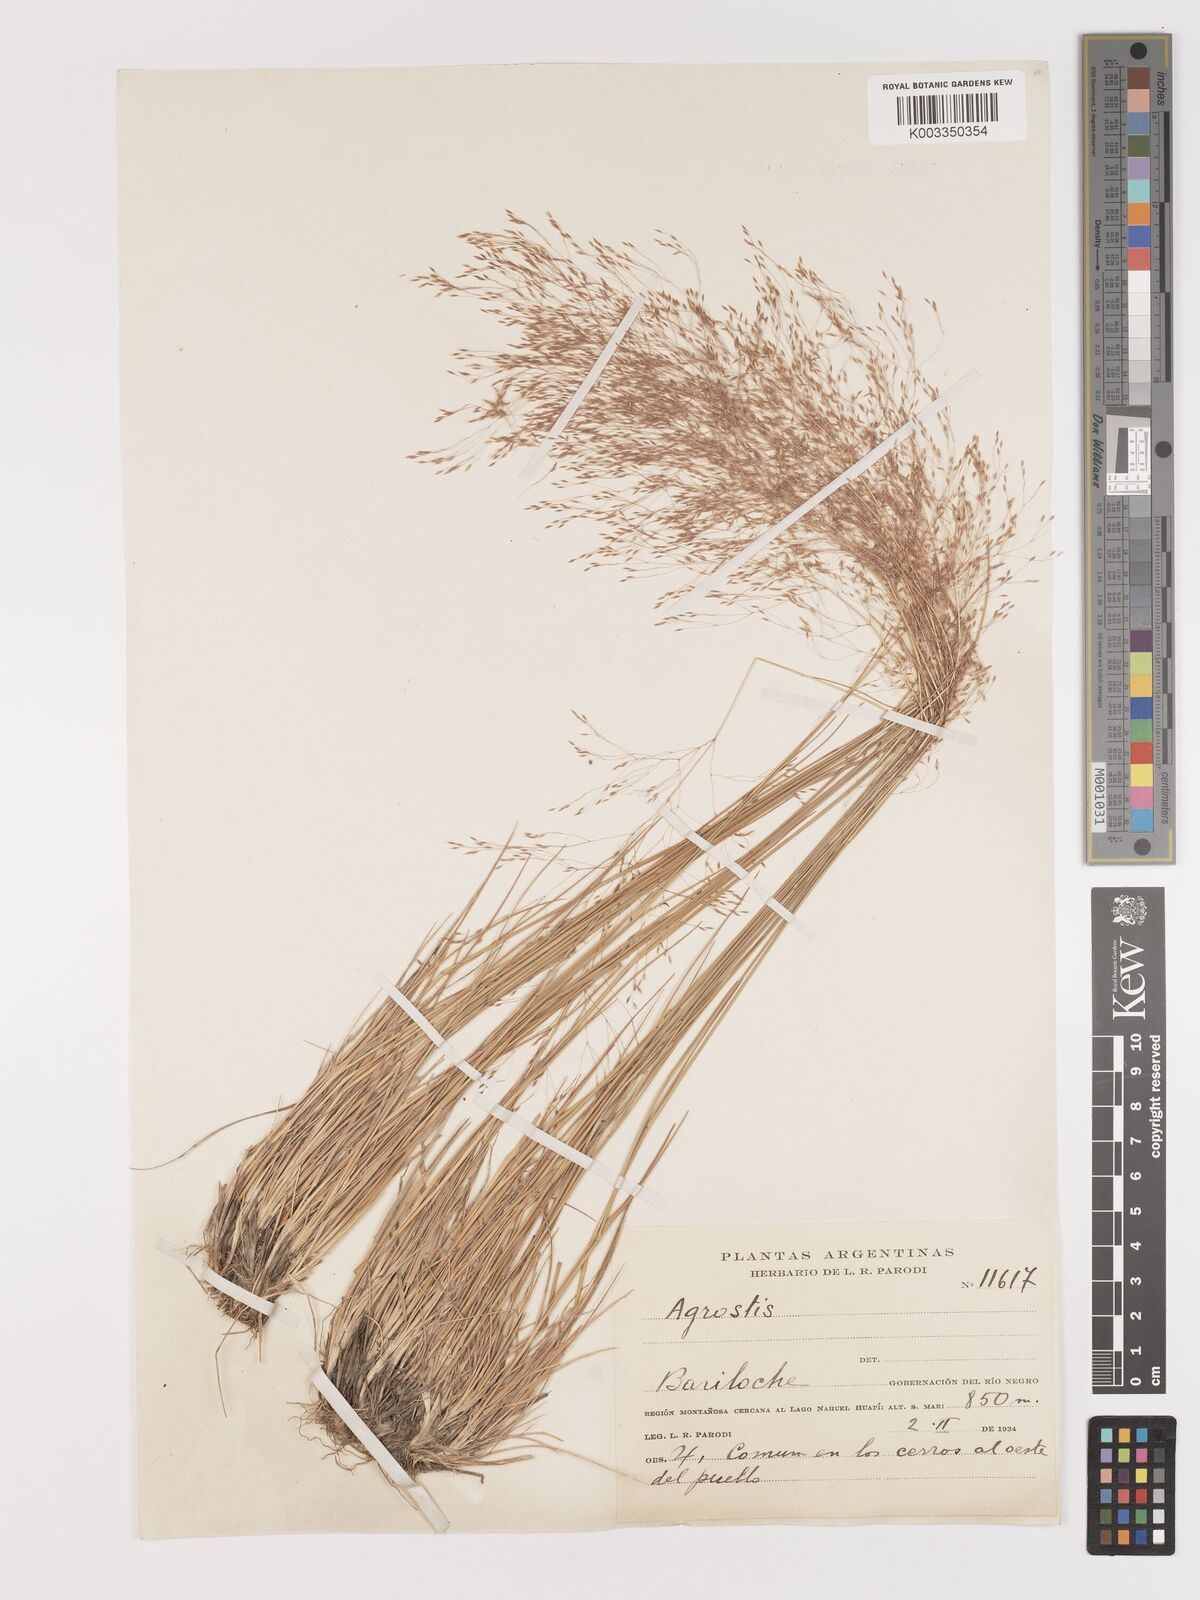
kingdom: Plantae
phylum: Tracheophyta
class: Liliopsida
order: Poales
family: Poaceae
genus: Agrostis
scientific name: Agrostis
